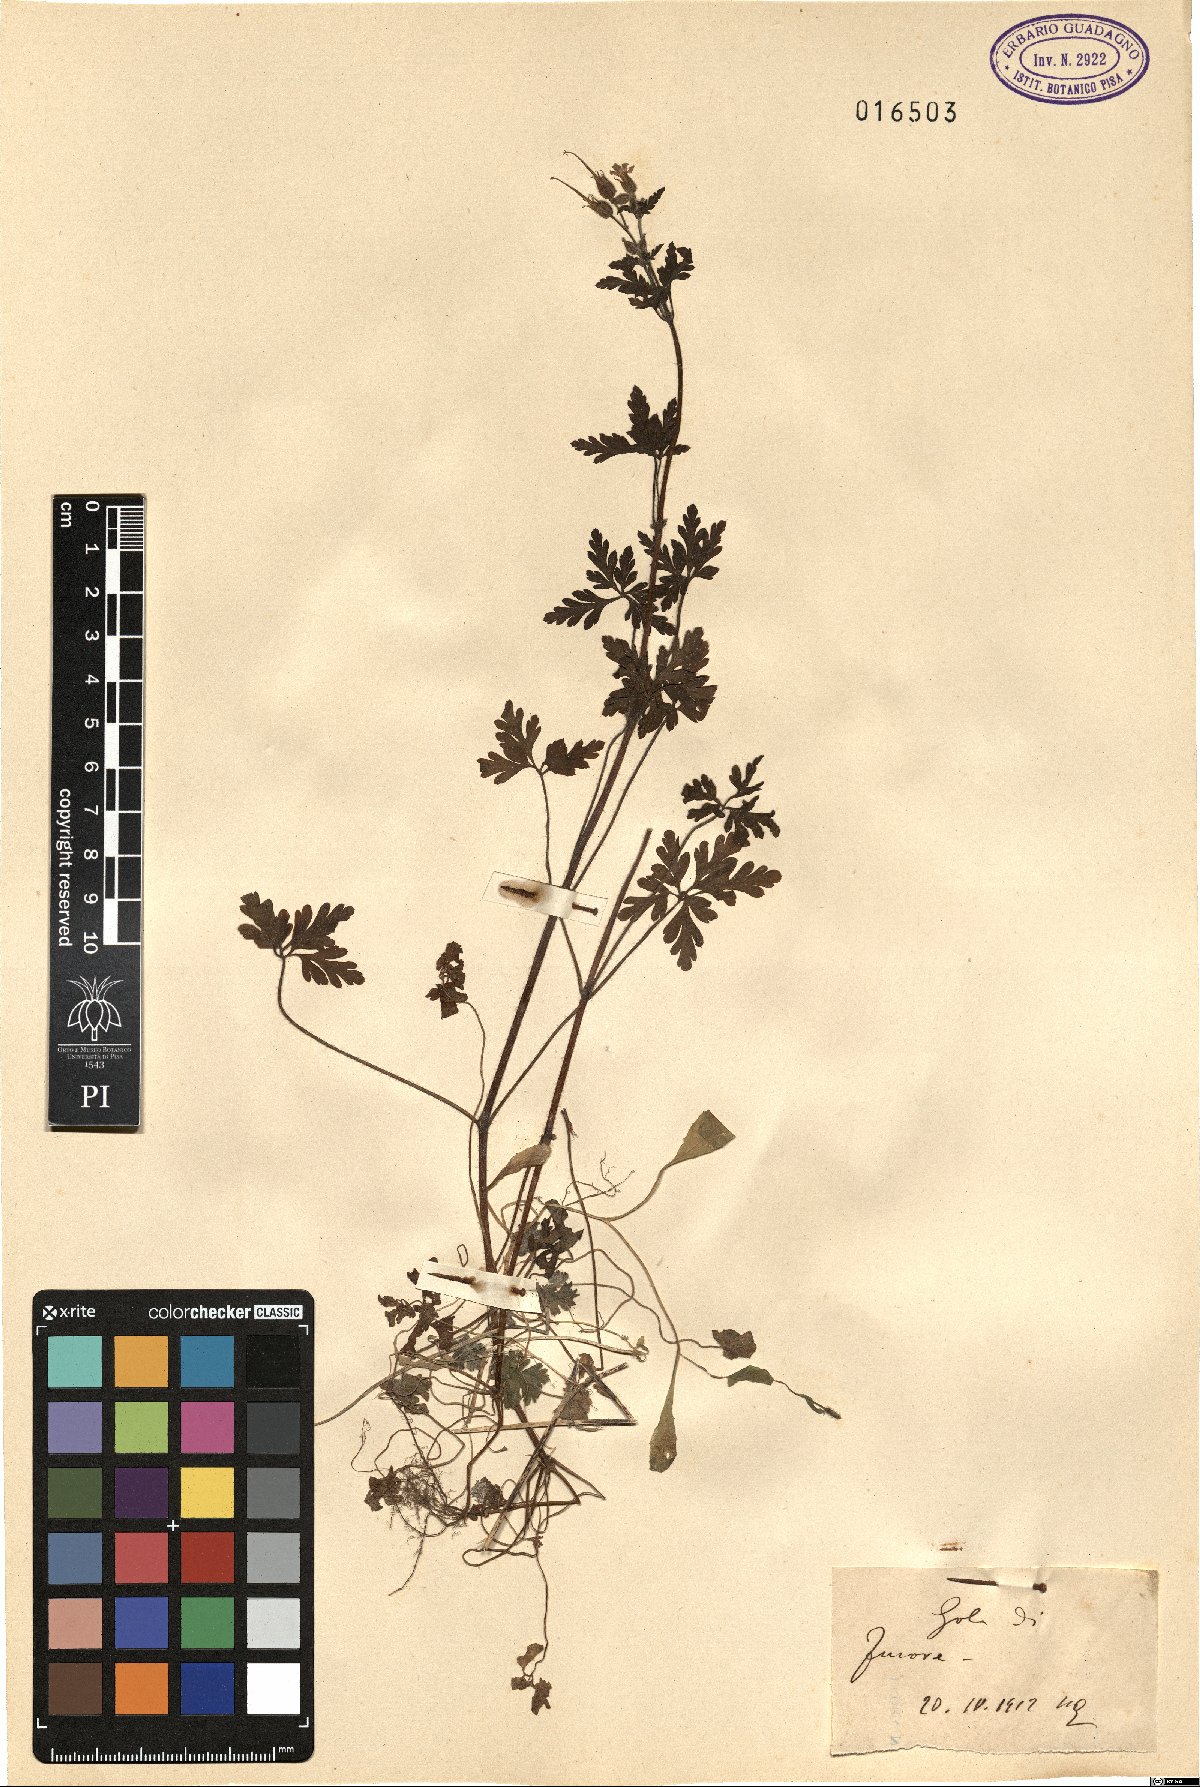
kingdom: Plantae
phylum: Tracheophyta
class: Magnoliopsida
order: Geraniales
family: Geraniaceae
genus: Geranium
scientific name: Geranium
